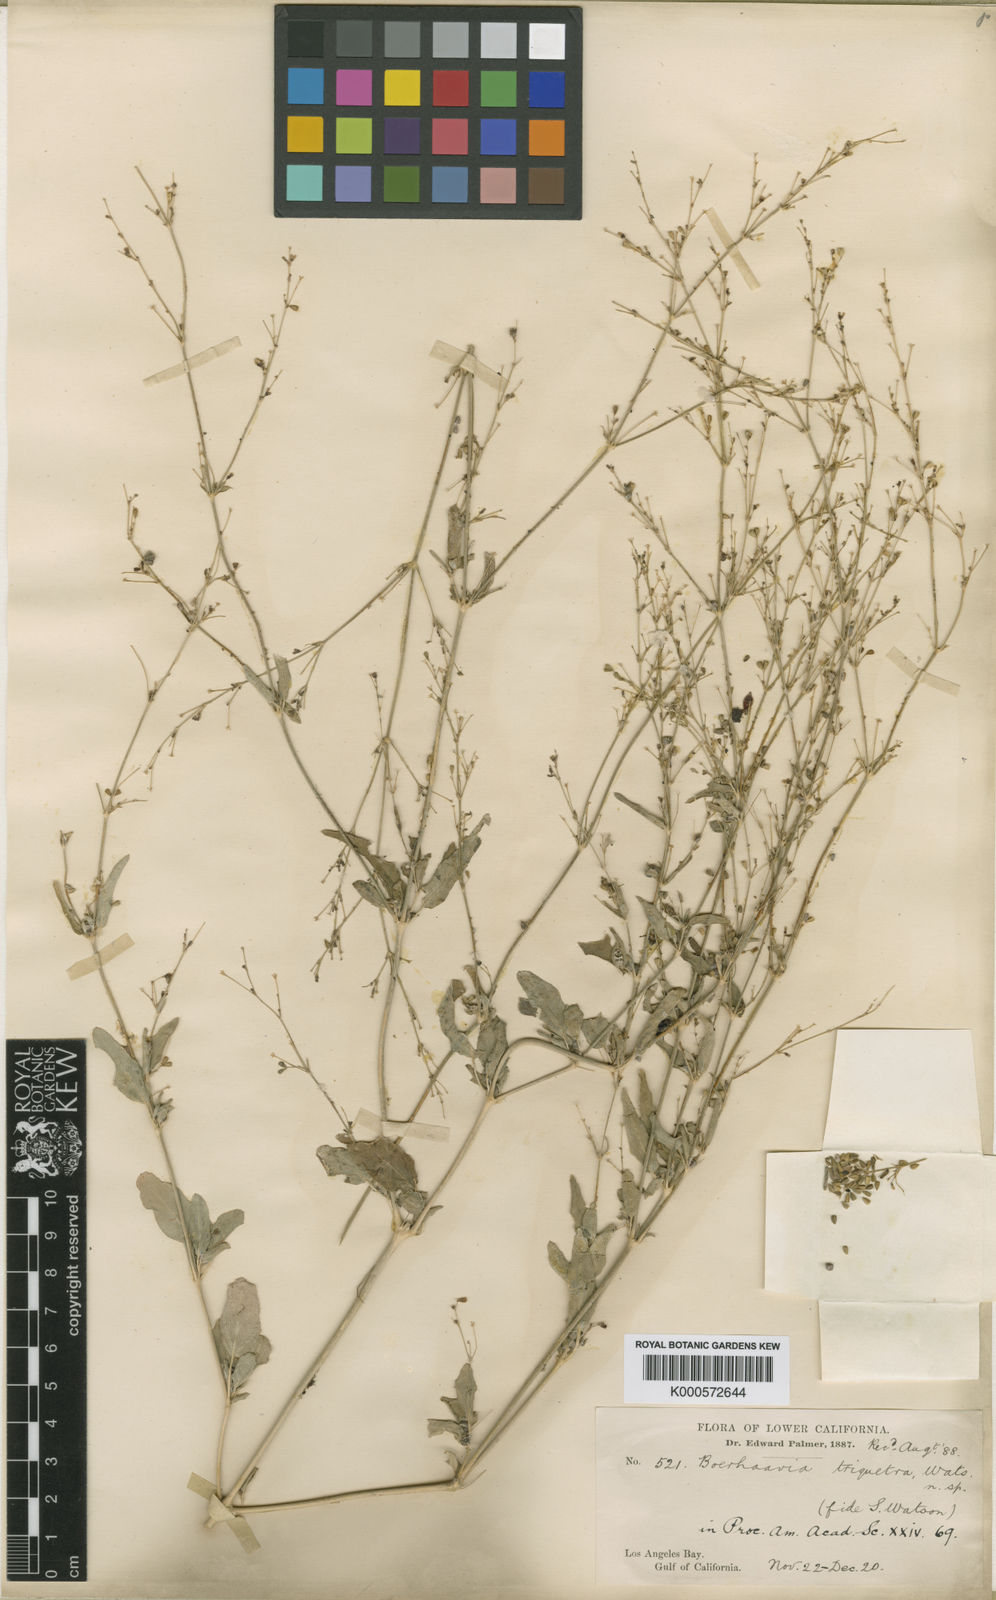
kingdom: Plantae
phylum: Tracheophyta
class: Magnoliopsida
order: Caryophyllales
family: Nyctaginaceae
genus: Boerhavia
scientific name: Boerhavia triquetra
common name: Creeping sticky-stem
